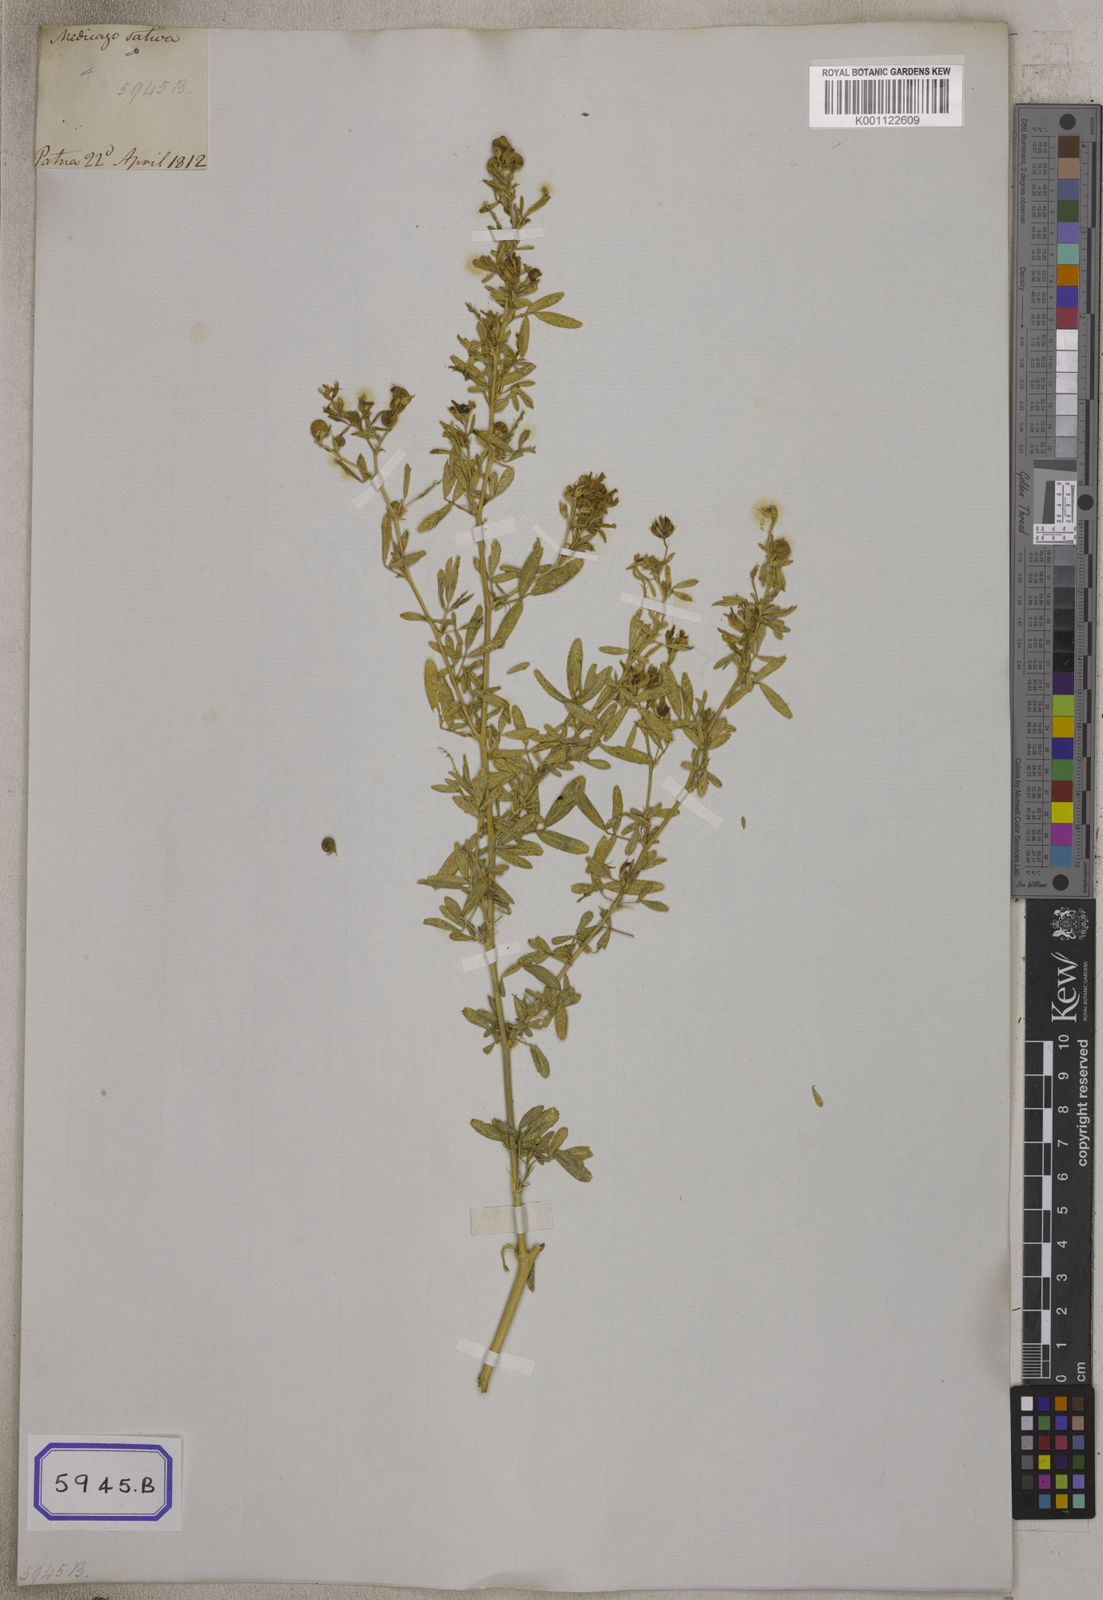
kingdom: Plantae
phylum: Tracheophyta
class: Magnoliopsida
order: Fabales
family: Fabaceae
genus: Medicago
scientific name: Medicago sativa
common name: Alfalfa
